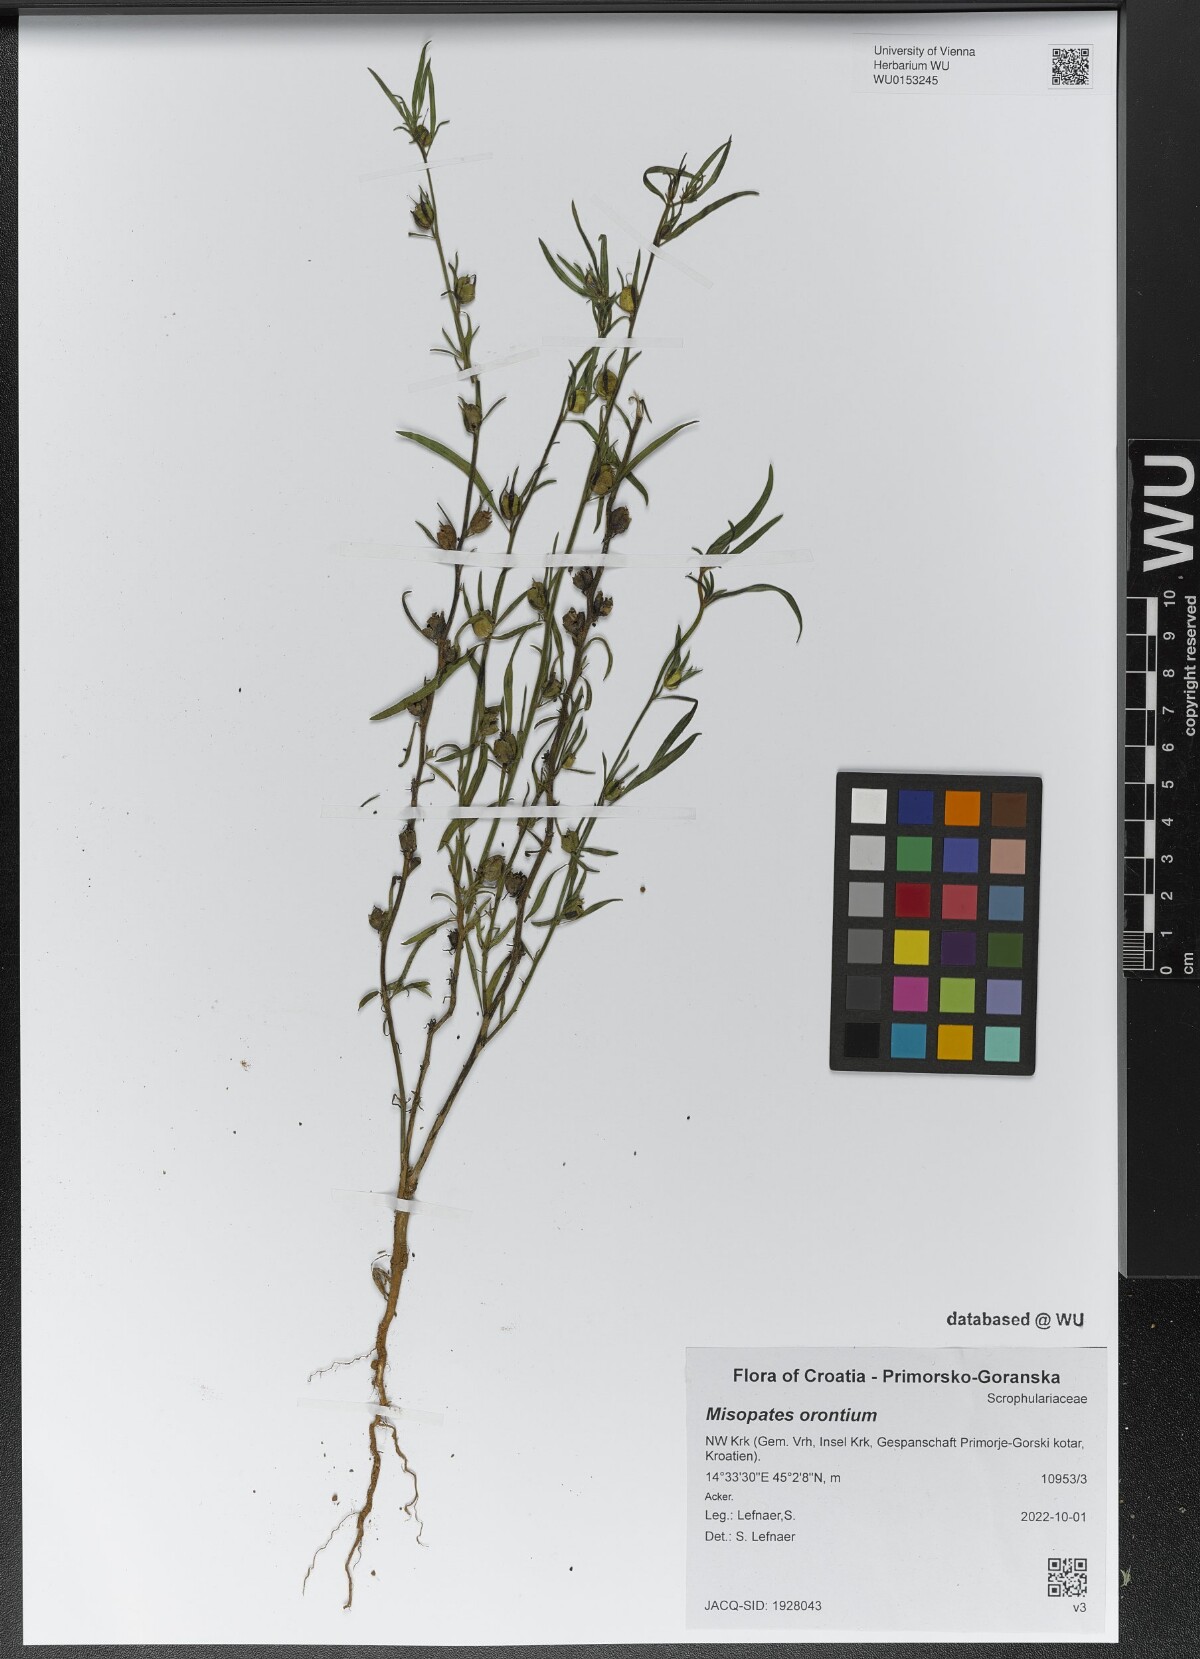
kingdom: Plantae
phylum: Tracheophyta
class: Magnoliopsida
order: Lamiales
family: Plantaginaceae
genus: Misopates
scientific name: Misopates orontium
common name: Weasel's-snout
